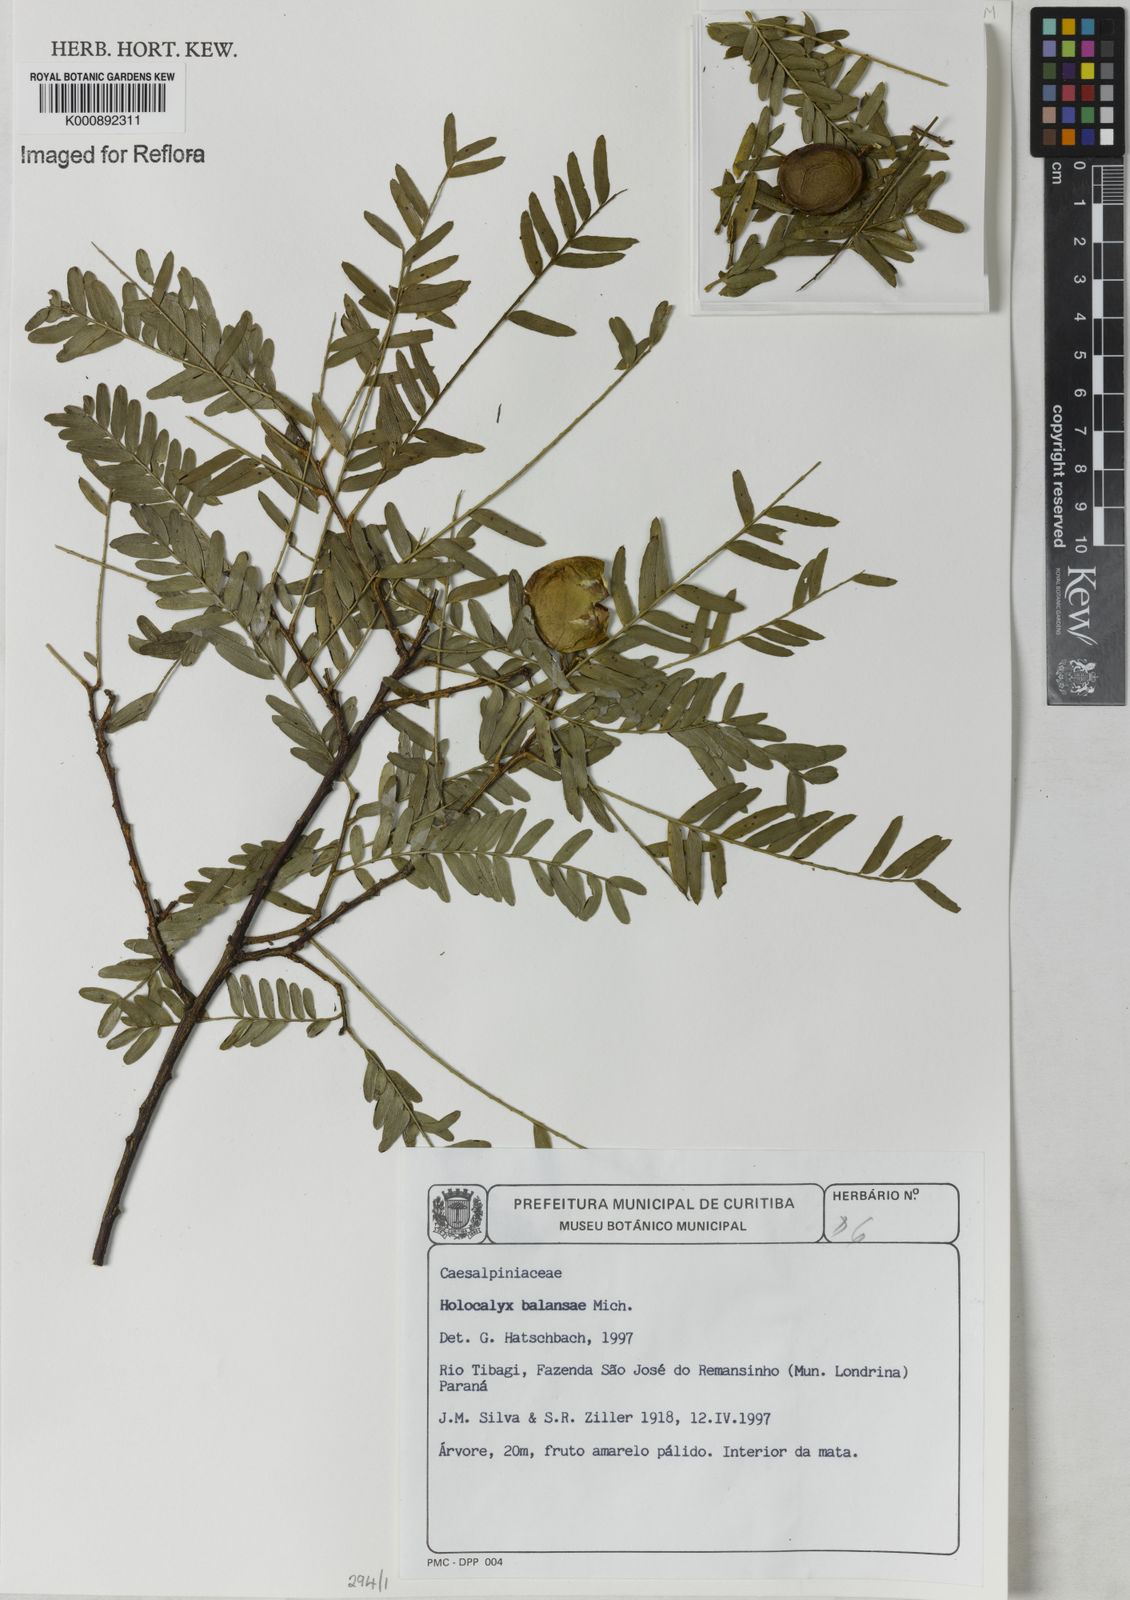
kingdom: Plantae
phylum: Tracheophyta
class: Magnoliopsida
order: Fabales
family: Fabaceae
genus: Holocalyx
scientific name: Holocalyx
